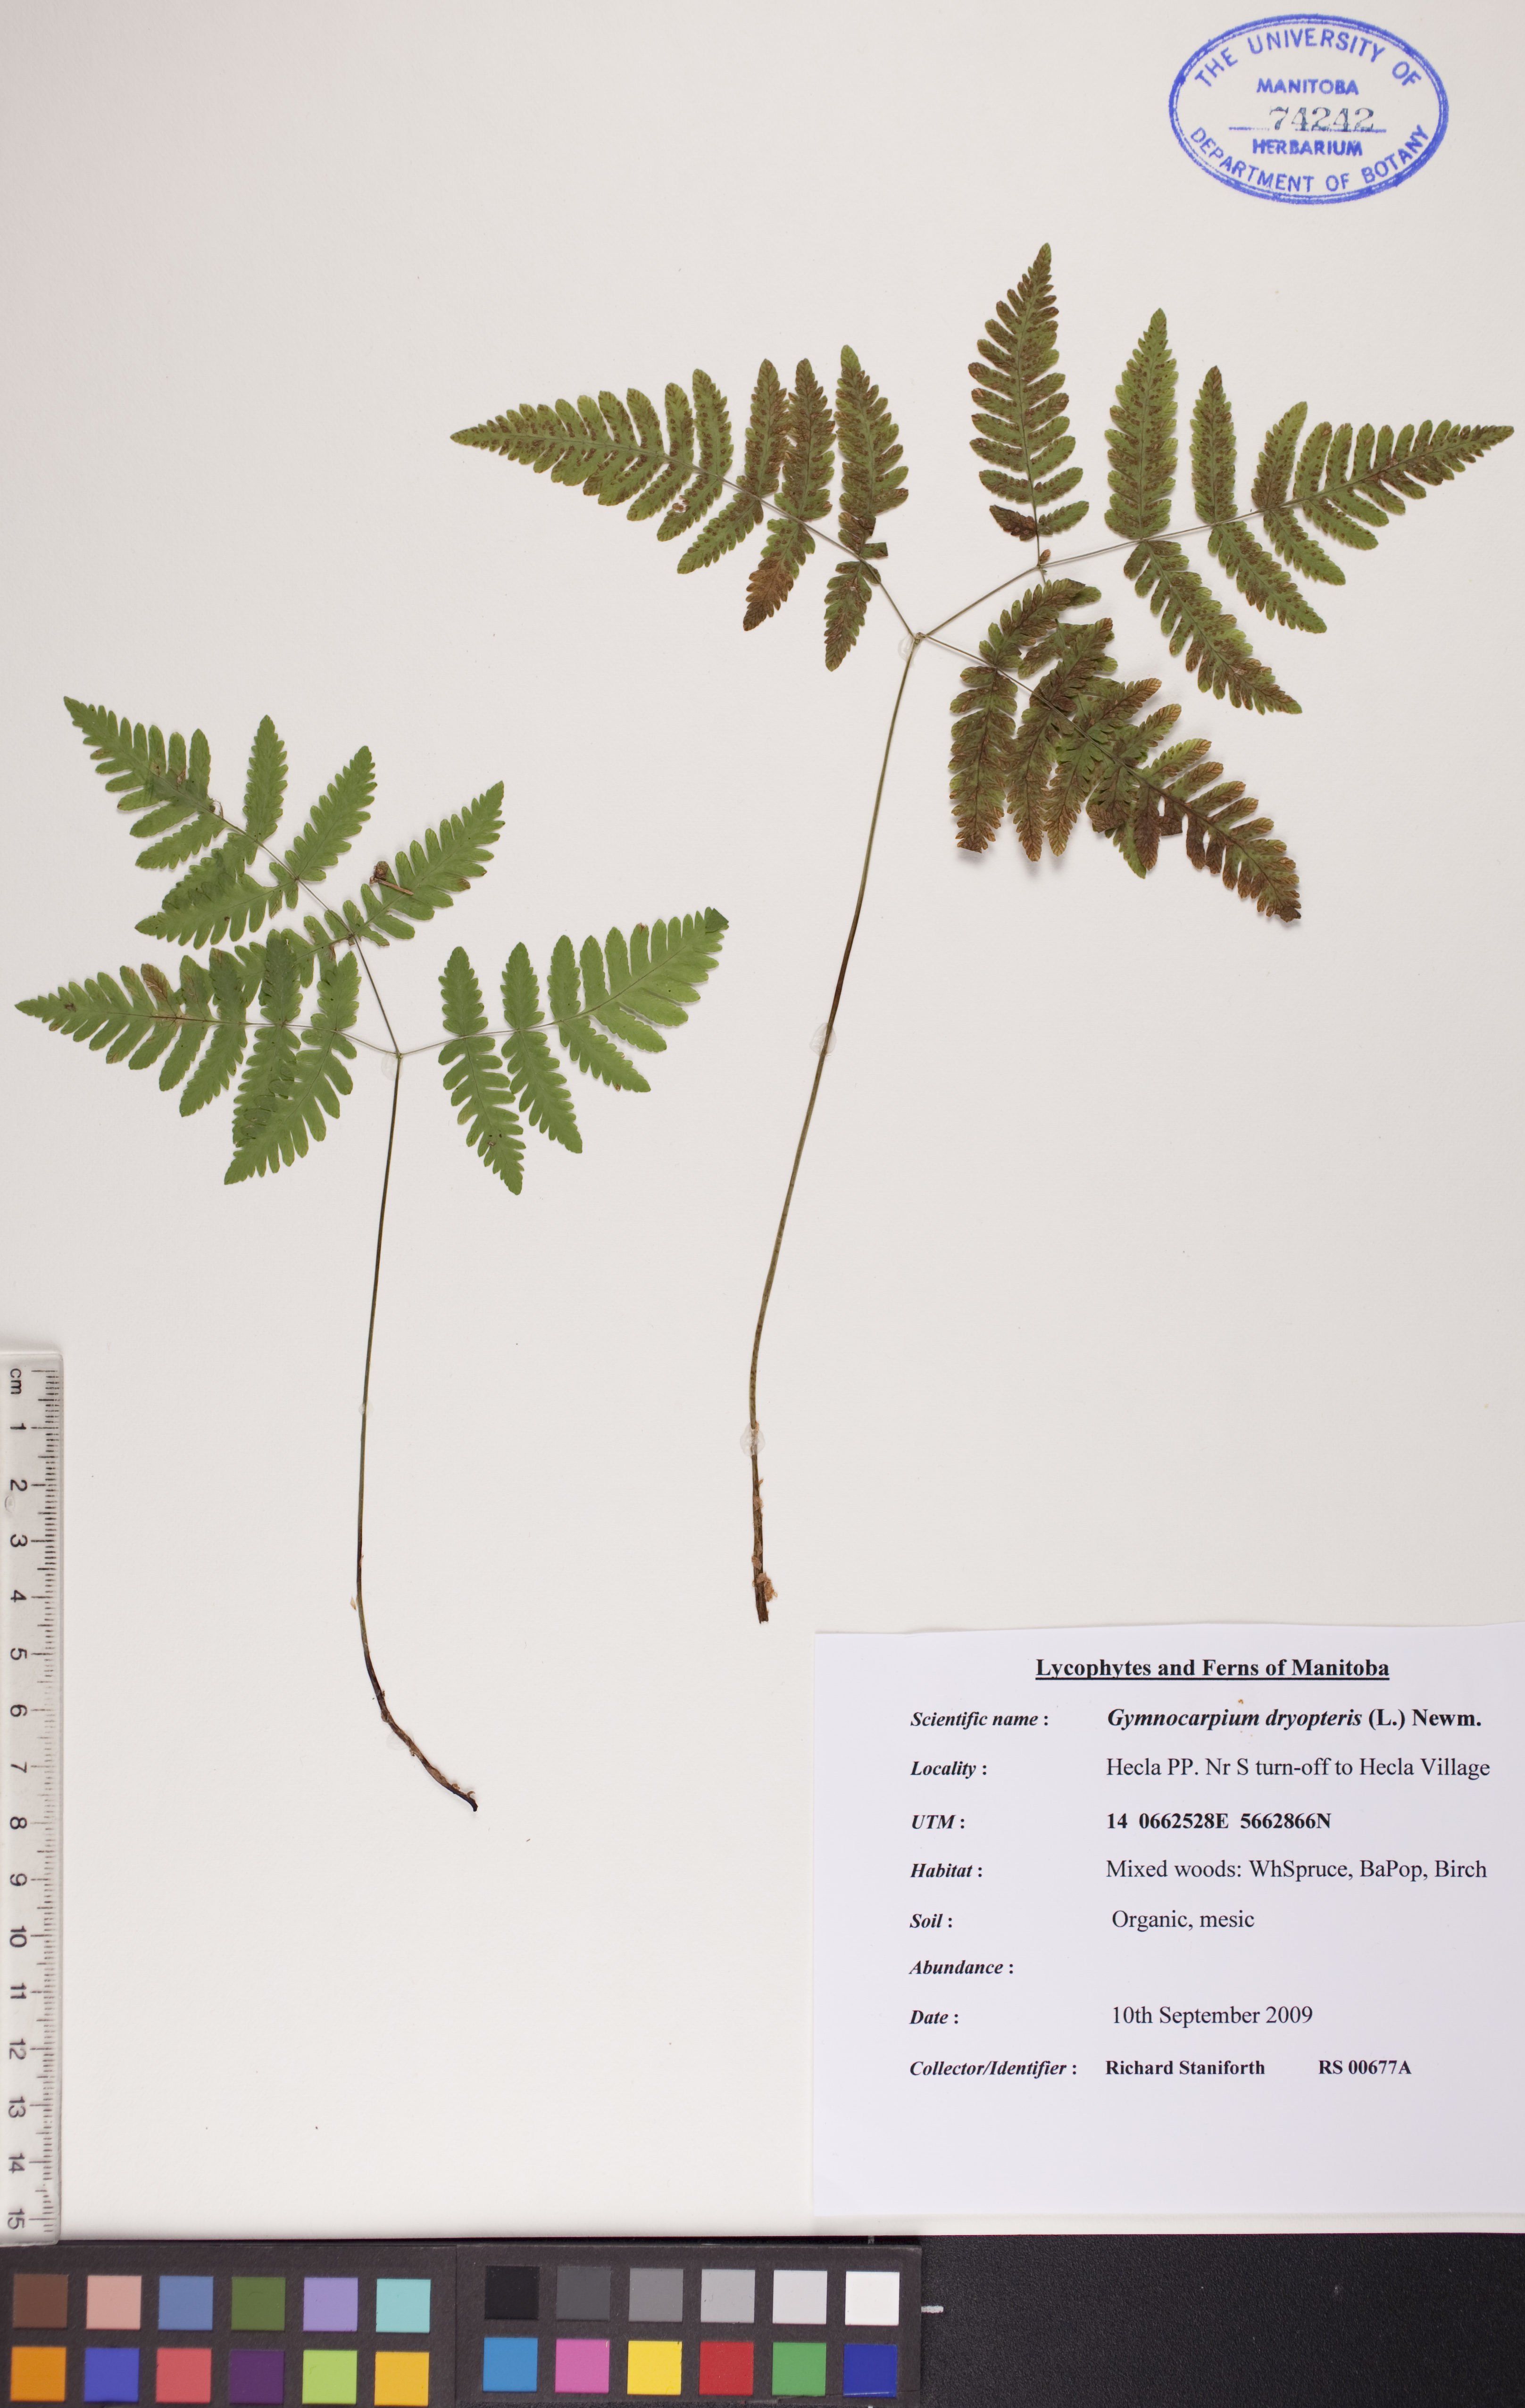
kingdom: Plantae
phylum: Tracheophyta
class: Polypodiopsida
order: Polypodiales
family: Cystopteridaceae
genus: Gymnocarpium
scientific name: Gymnocarpium dryopteris
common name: Oak fern
